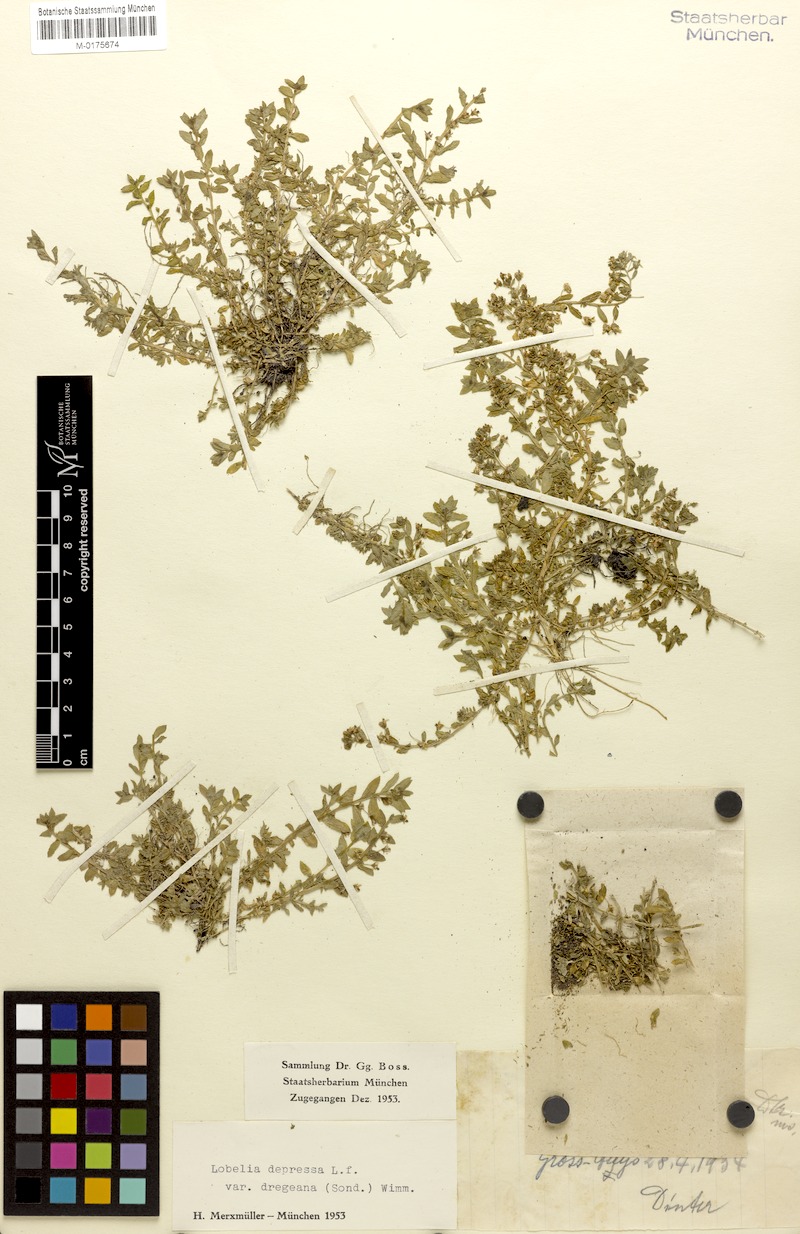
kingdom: Plantae
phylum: Tracheophyta
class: Magnoliopsida
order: Asterales
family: Campanulaceae
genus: Lobelia
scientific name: Lobelia sonderiana
